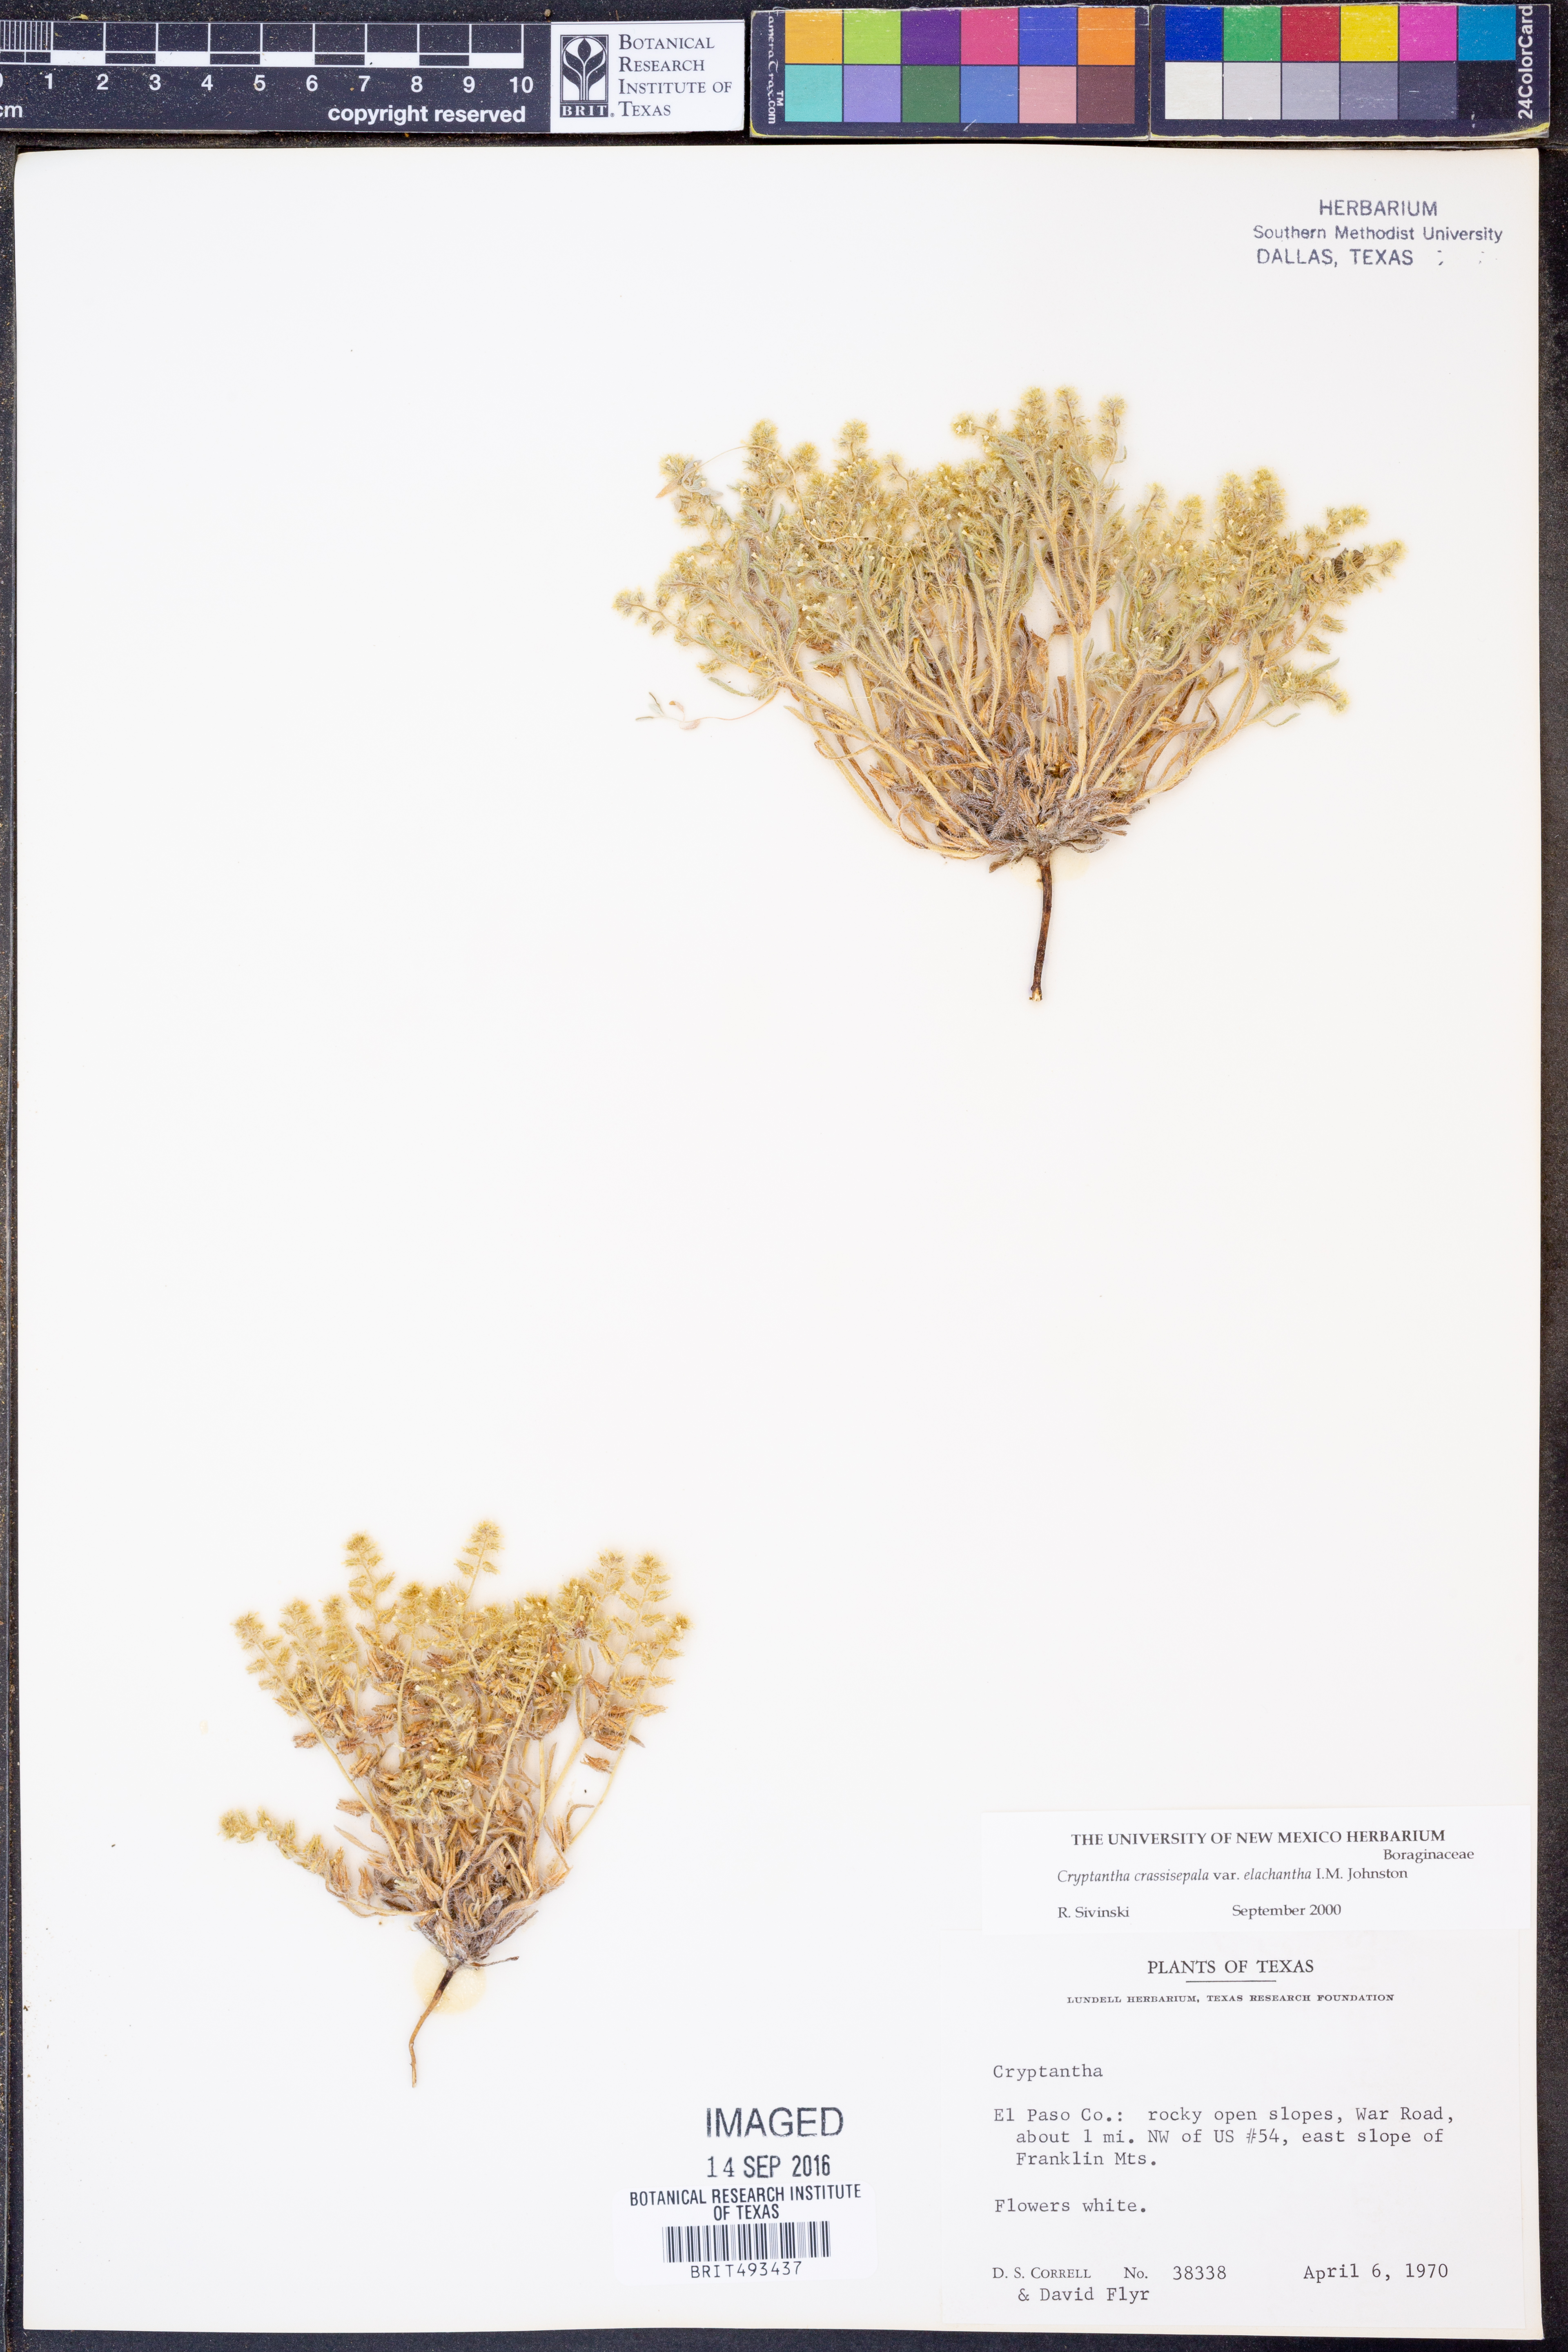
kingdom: Plantae
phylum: Tracheophyta
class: Magnoliopsida
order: Boraginales
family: Boraginaceae
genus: Cryptantha
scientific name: Cryptantha crassisepala
